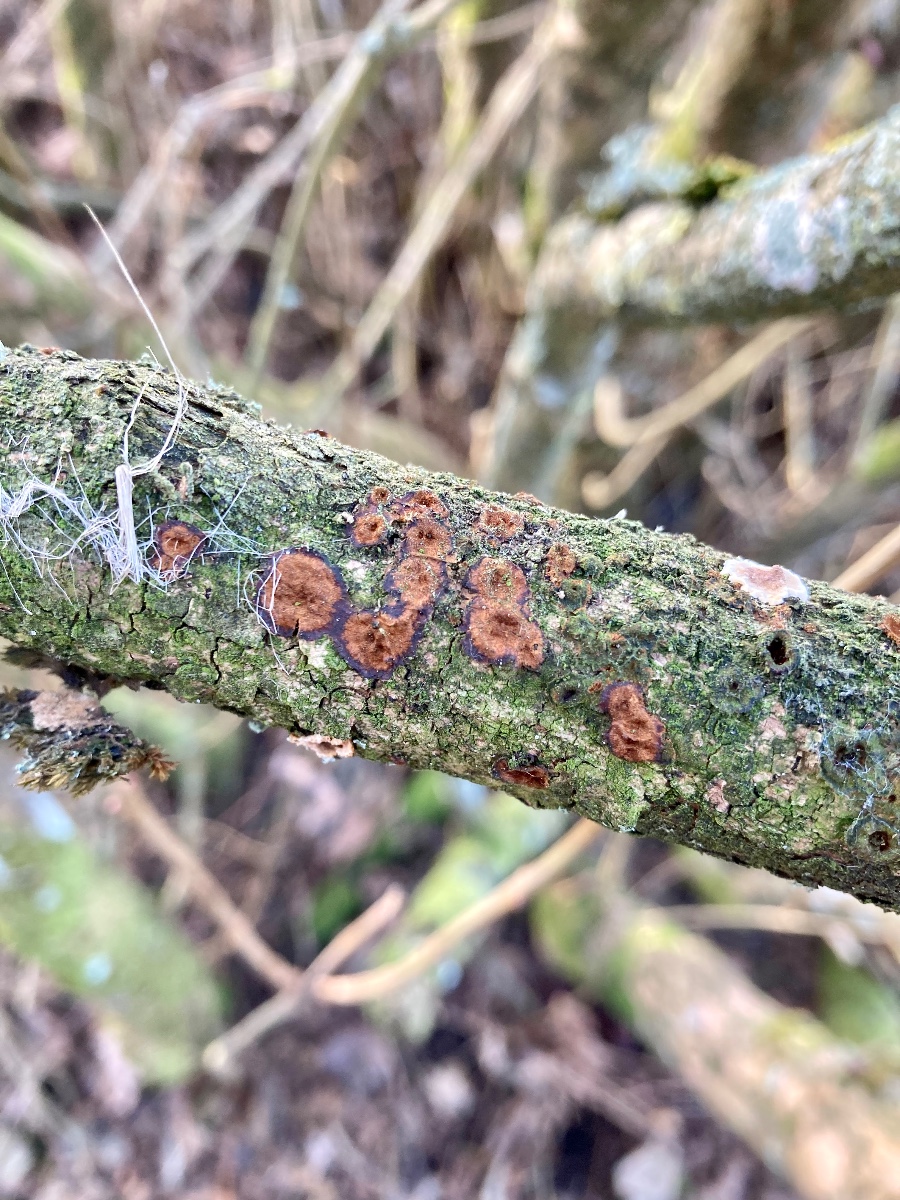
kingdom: Fungi
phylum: Basidiomycota
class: Agaricomycetes
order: Hymenochaetales
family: Hymenochaetaceae
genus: Hydnoporia
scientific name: Hydnoporia tabacina
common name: tobaksbrun ruslædersvamp
